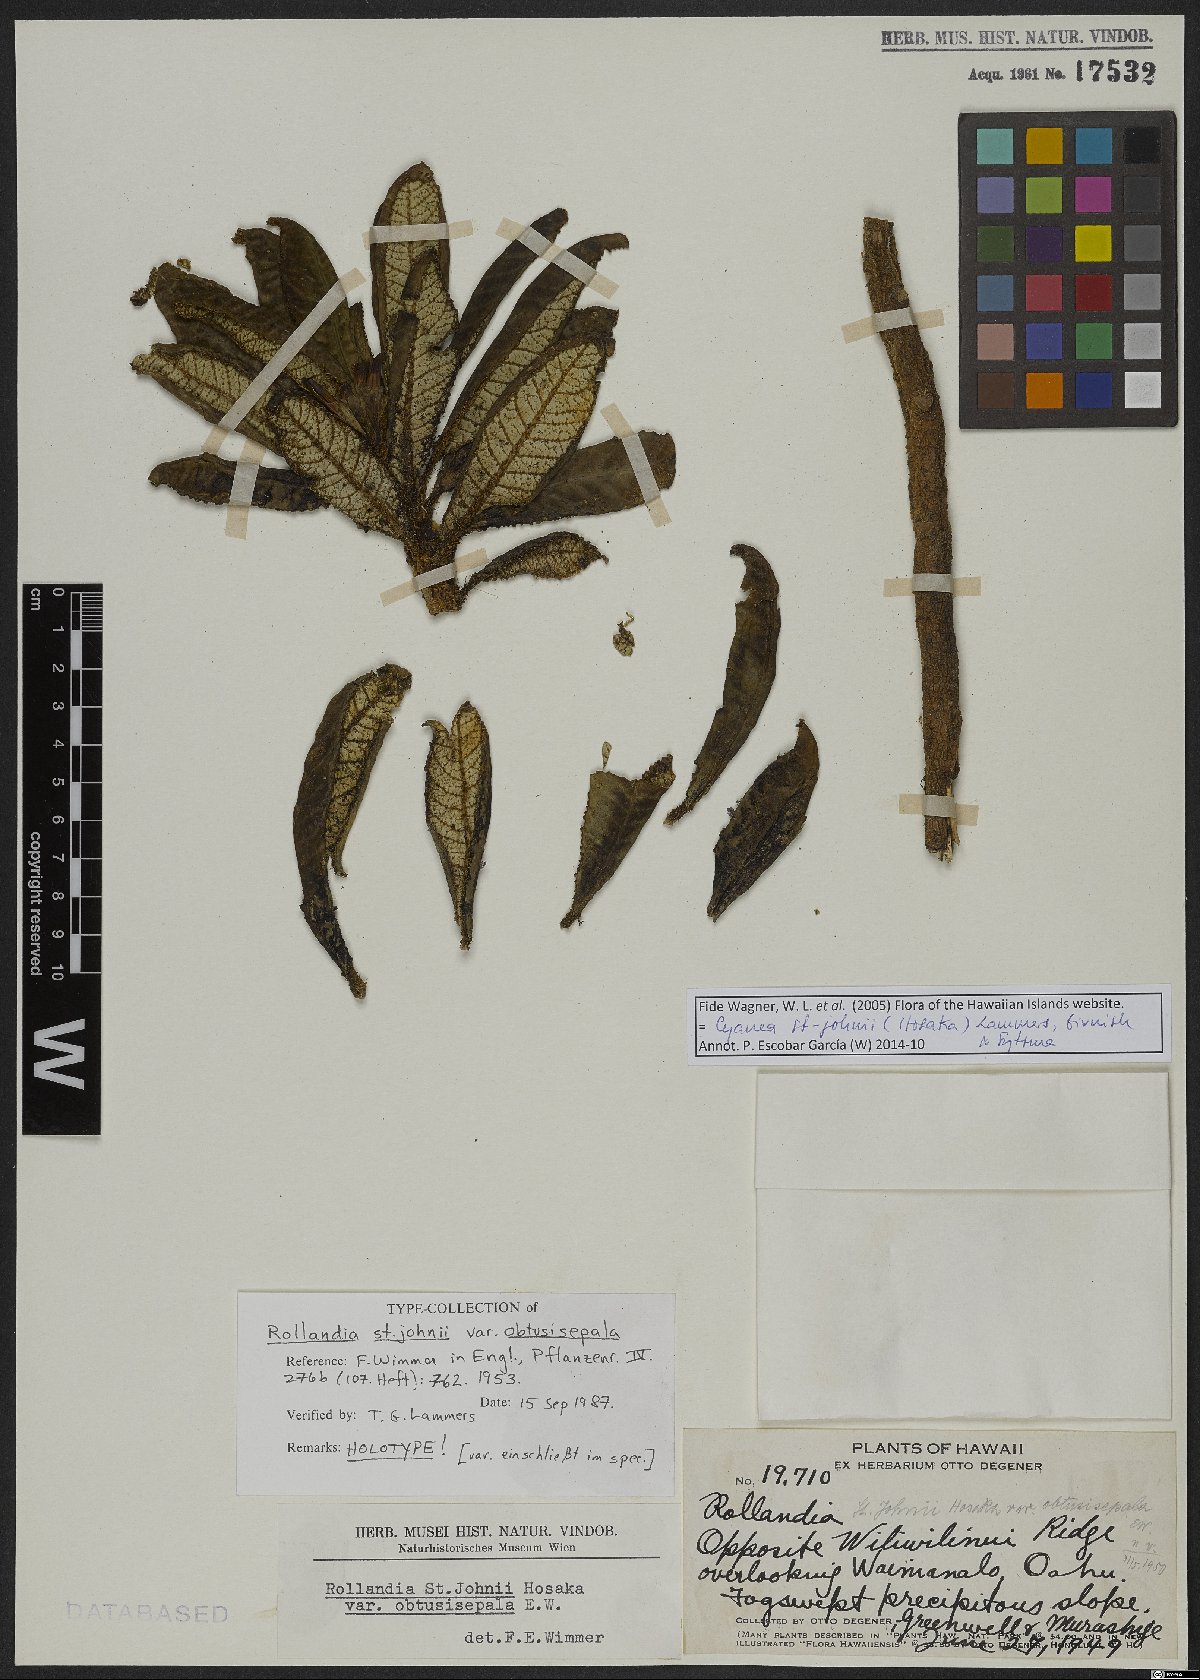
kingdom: Plantae
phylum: Tracheophyta
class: Magnoliopsida
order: Asterales
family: Campanulaceae
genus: Cyanea
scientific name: Cyanea
